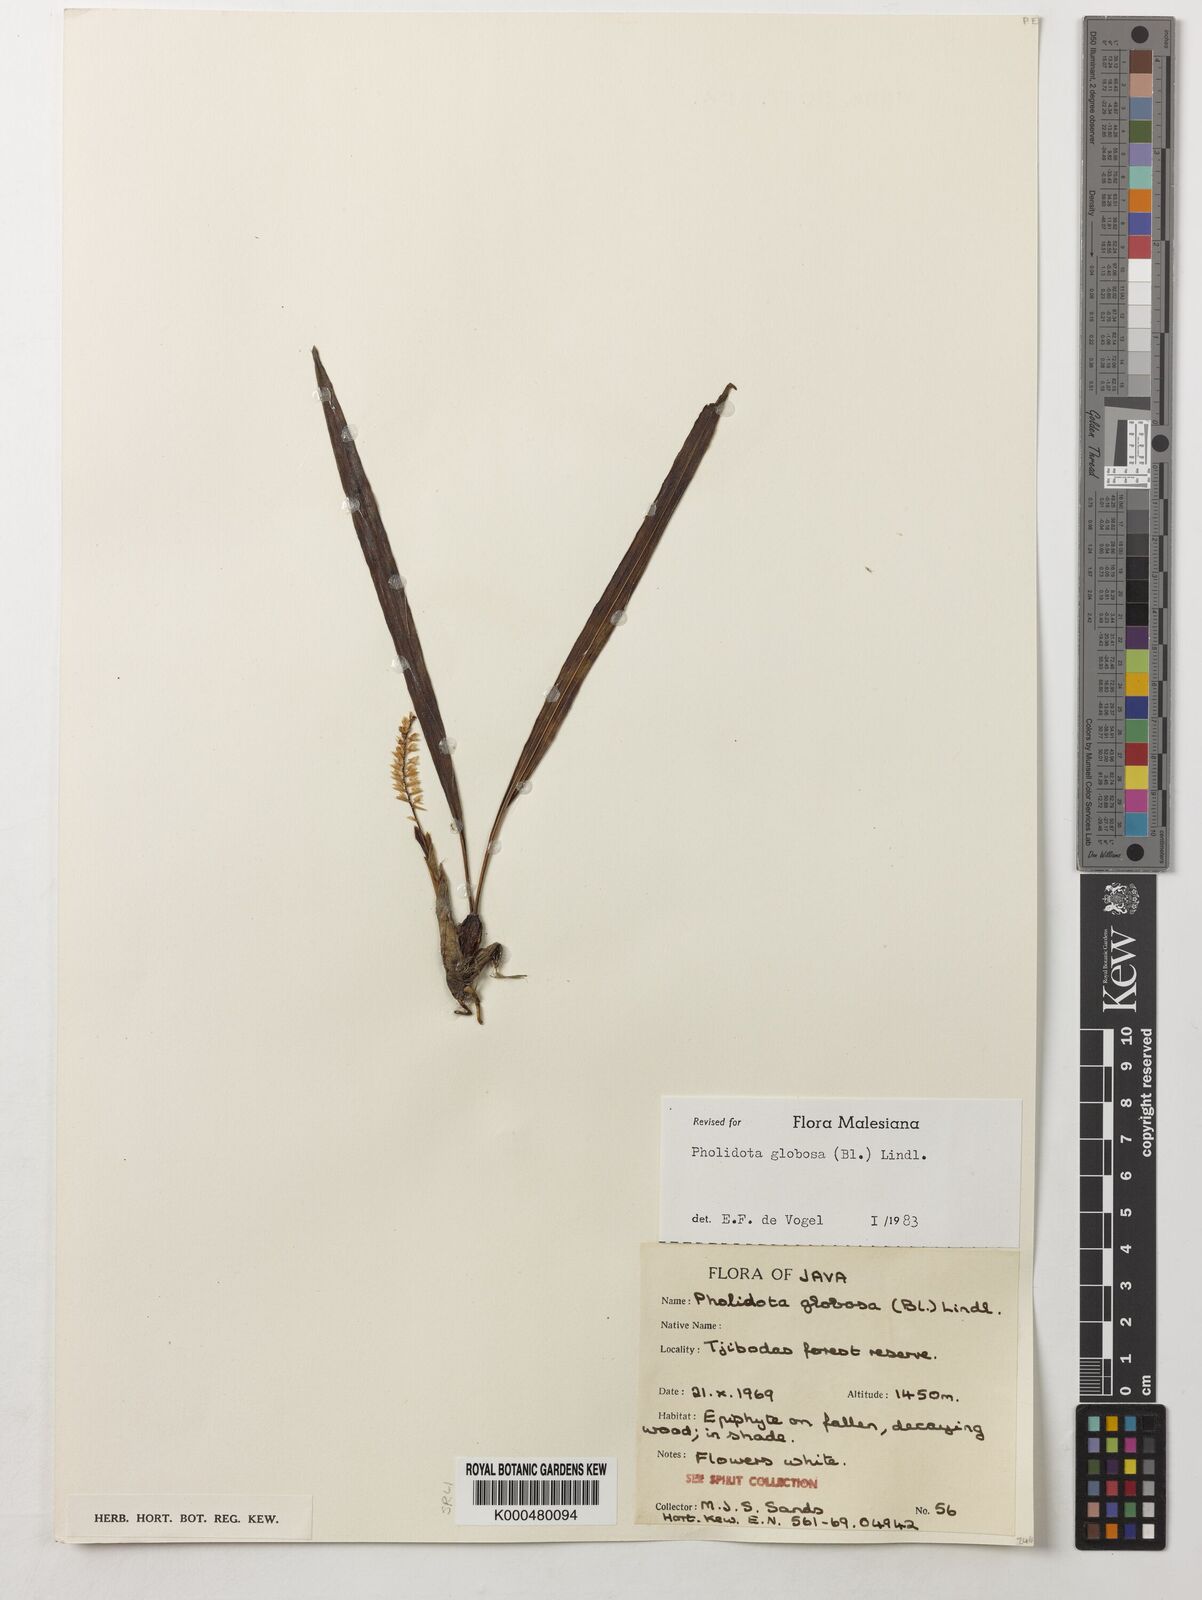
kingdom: Plantae
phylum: Tracheophyta
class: Liliopsida
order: Asparagales
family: Orchidaceae
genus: Coelogyne
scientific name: Coelogyne globosa
